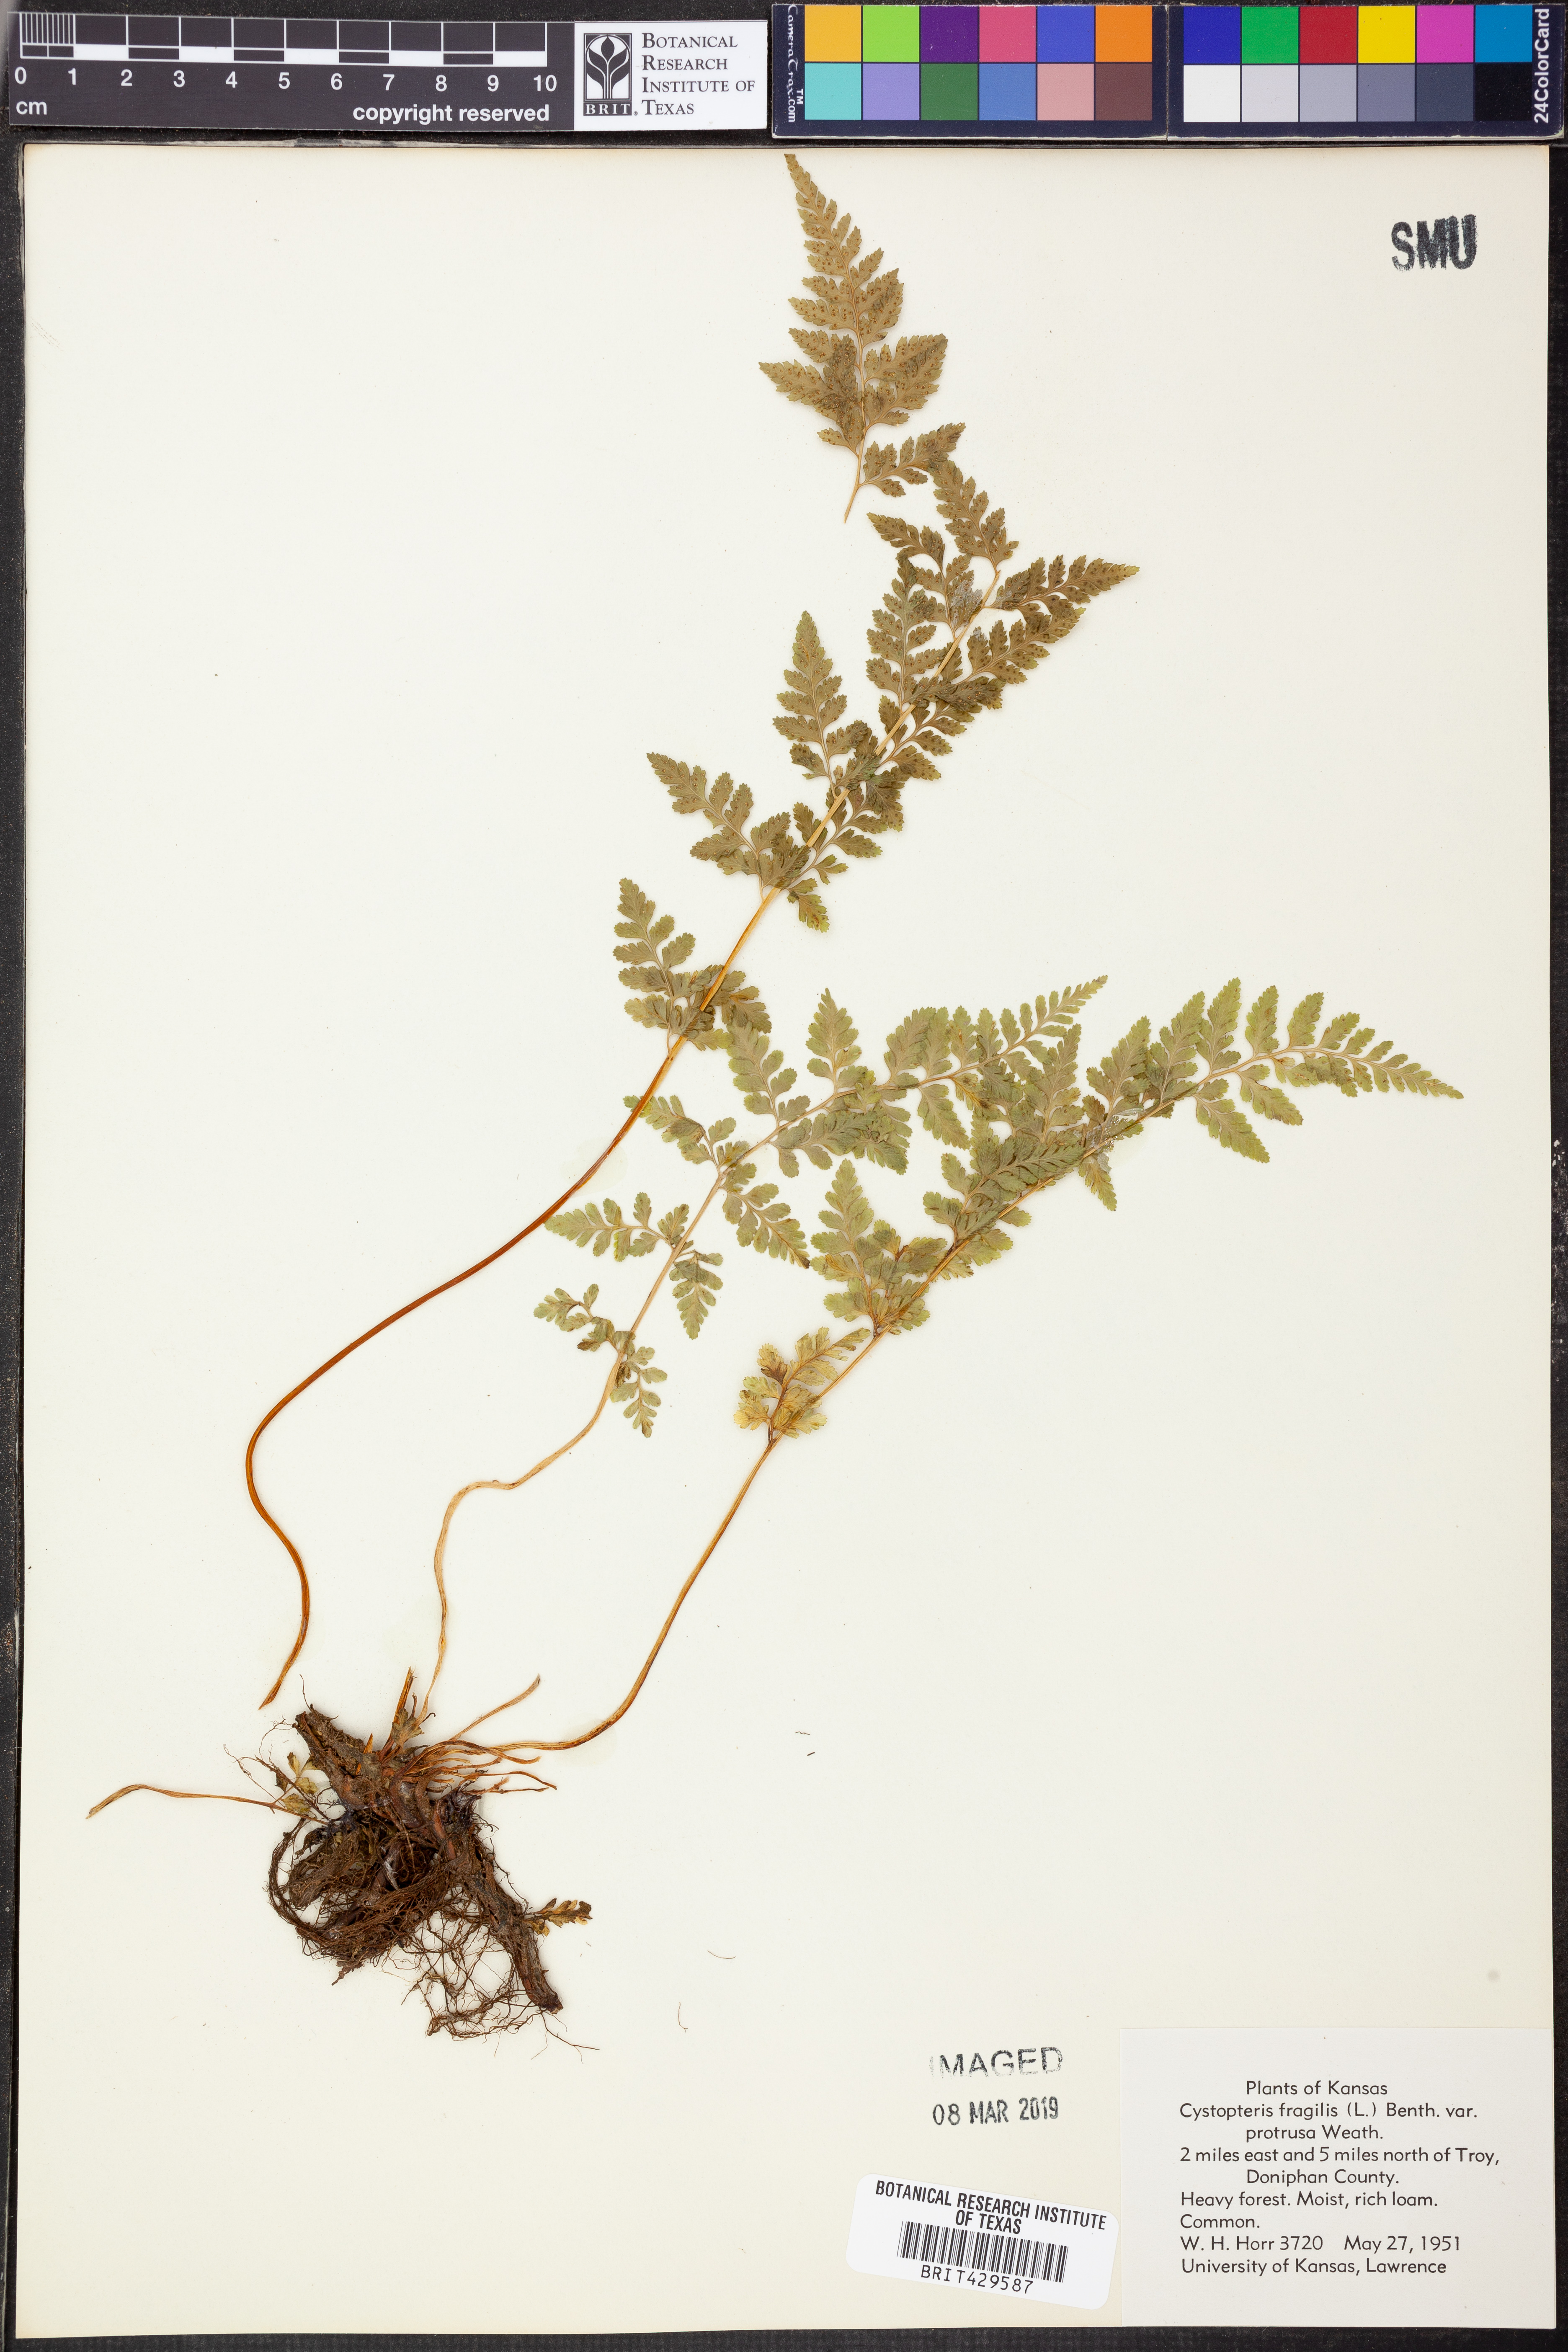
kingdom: Plantae
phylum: Tracheophyta
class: Polypodiopsida
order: Polypodiales
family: Cystopteridaceae
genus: Cystopteris
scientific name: Cystopteris protrusa
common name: Lowland brittle fern
